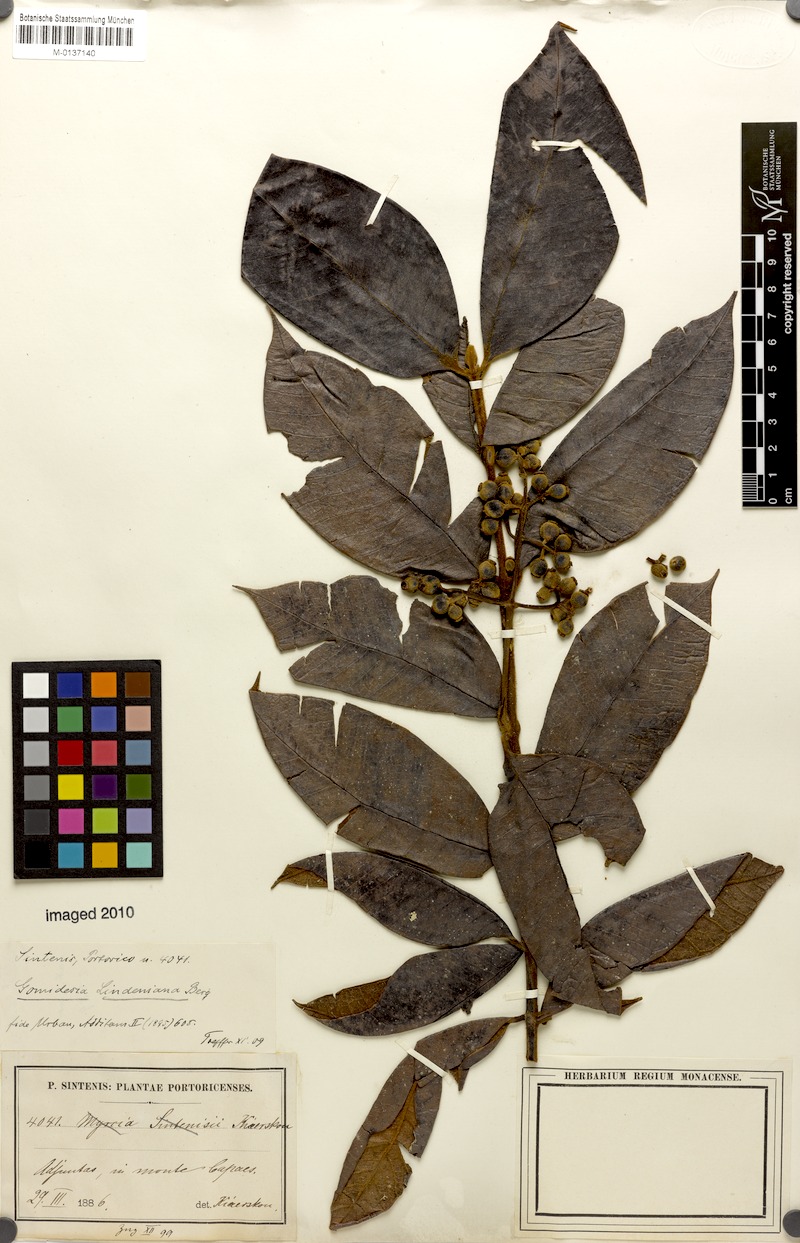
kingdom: Plantae
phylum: Tracheophyta
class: Magnoliopsida
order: Myrtales
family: Myrtaceae
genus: Myrcia
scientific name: Myrcia fenzliana
